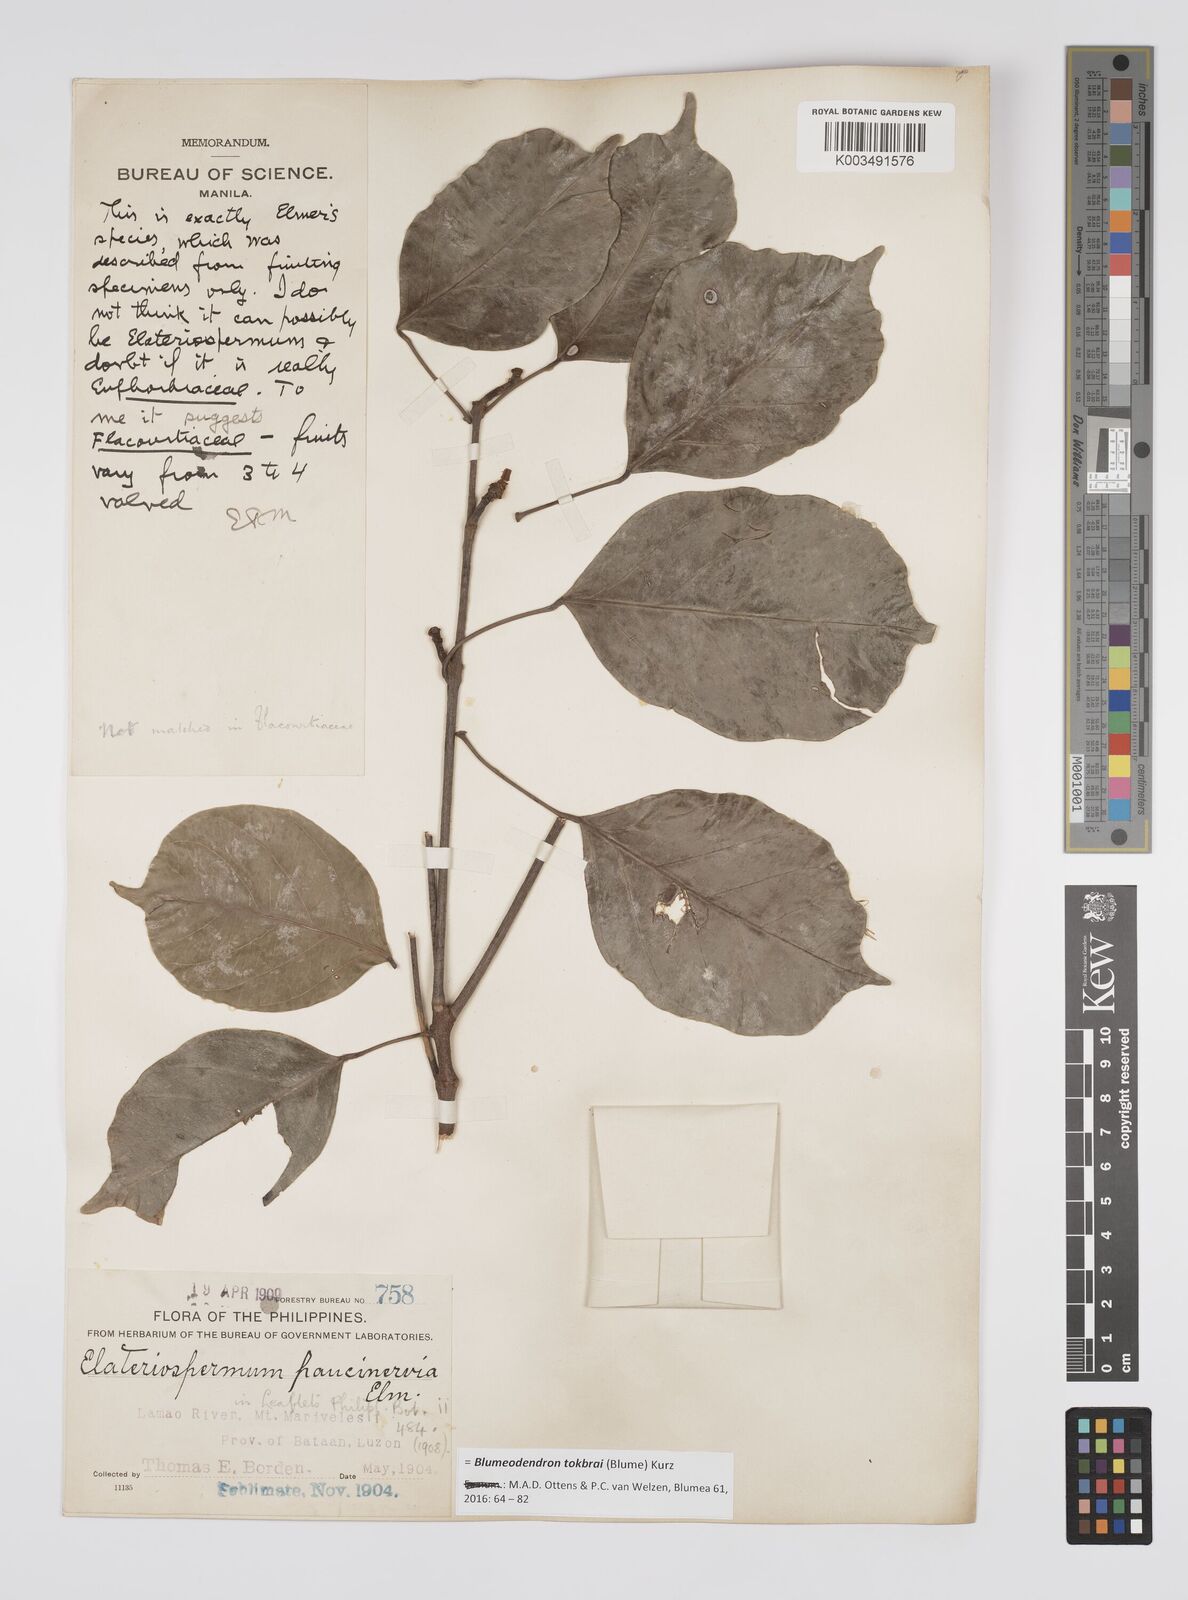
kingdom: Plantae
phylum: Tracheophyta
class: Magnoliopsida
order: Malpighiales
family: Euphorbiaceae
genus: Blumeodendron
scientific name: Blumeodendron tokbrai
